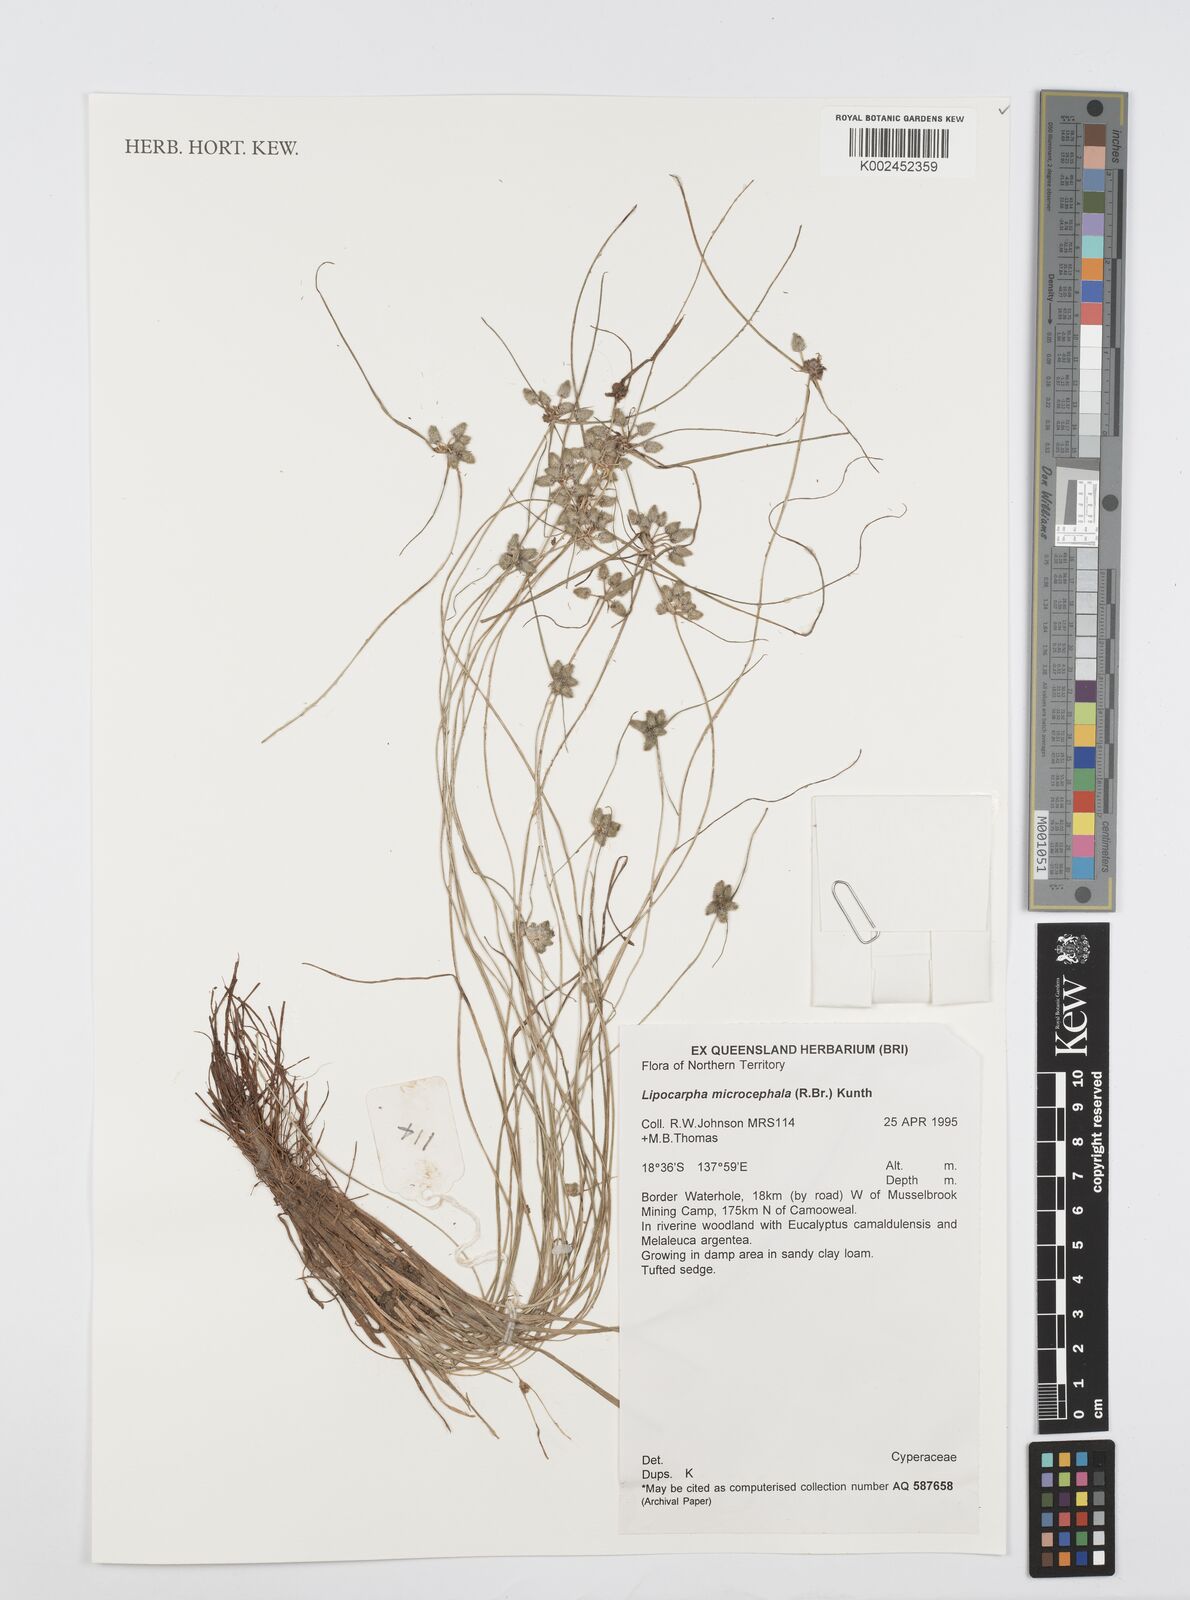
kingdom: Plantae
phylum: Tracheophyta
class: Liliopsida
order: Poales
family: Cyperaceae
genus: Cyperus
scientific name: Cyperus microcephalus
